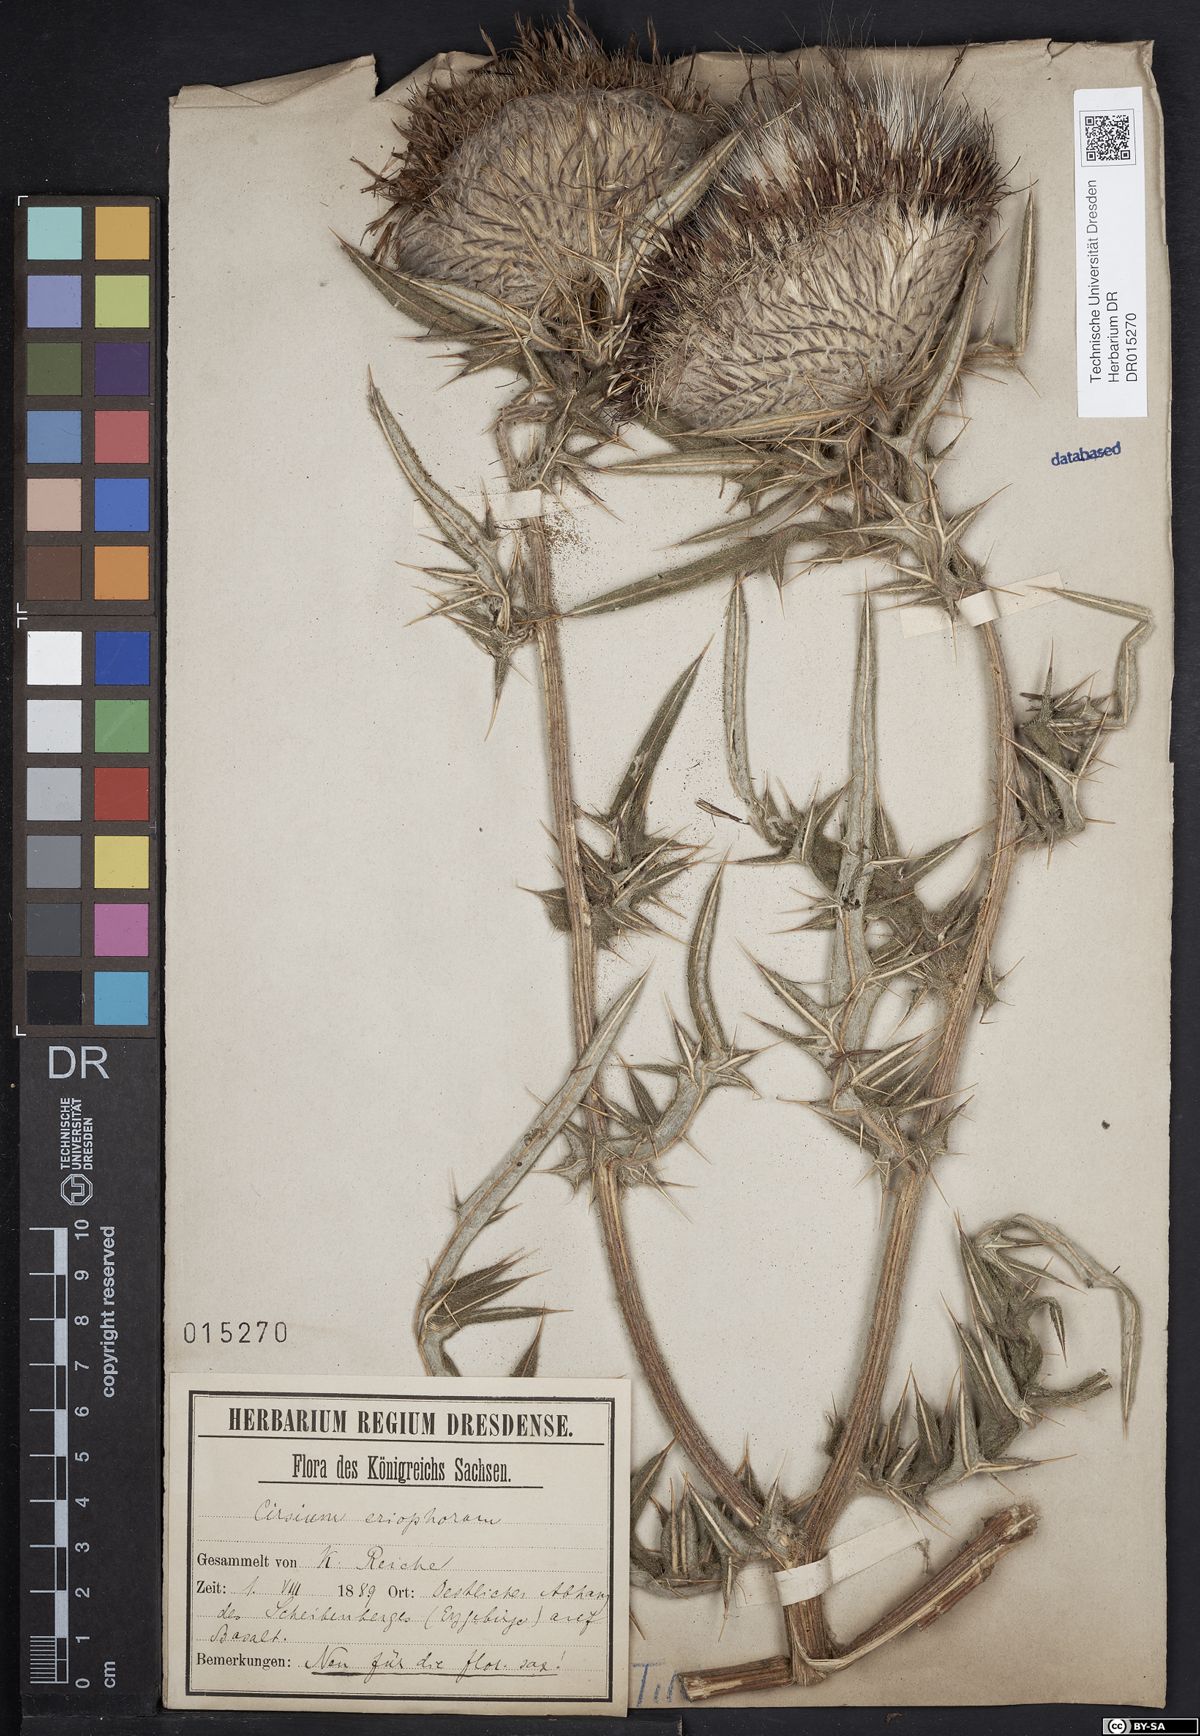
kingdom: Plantae
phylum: Tracheophyta
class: Magnoliopsida
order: Asterales
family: Asteraceae
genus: Lophiolepis
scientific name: Lophiolepis eriophora
